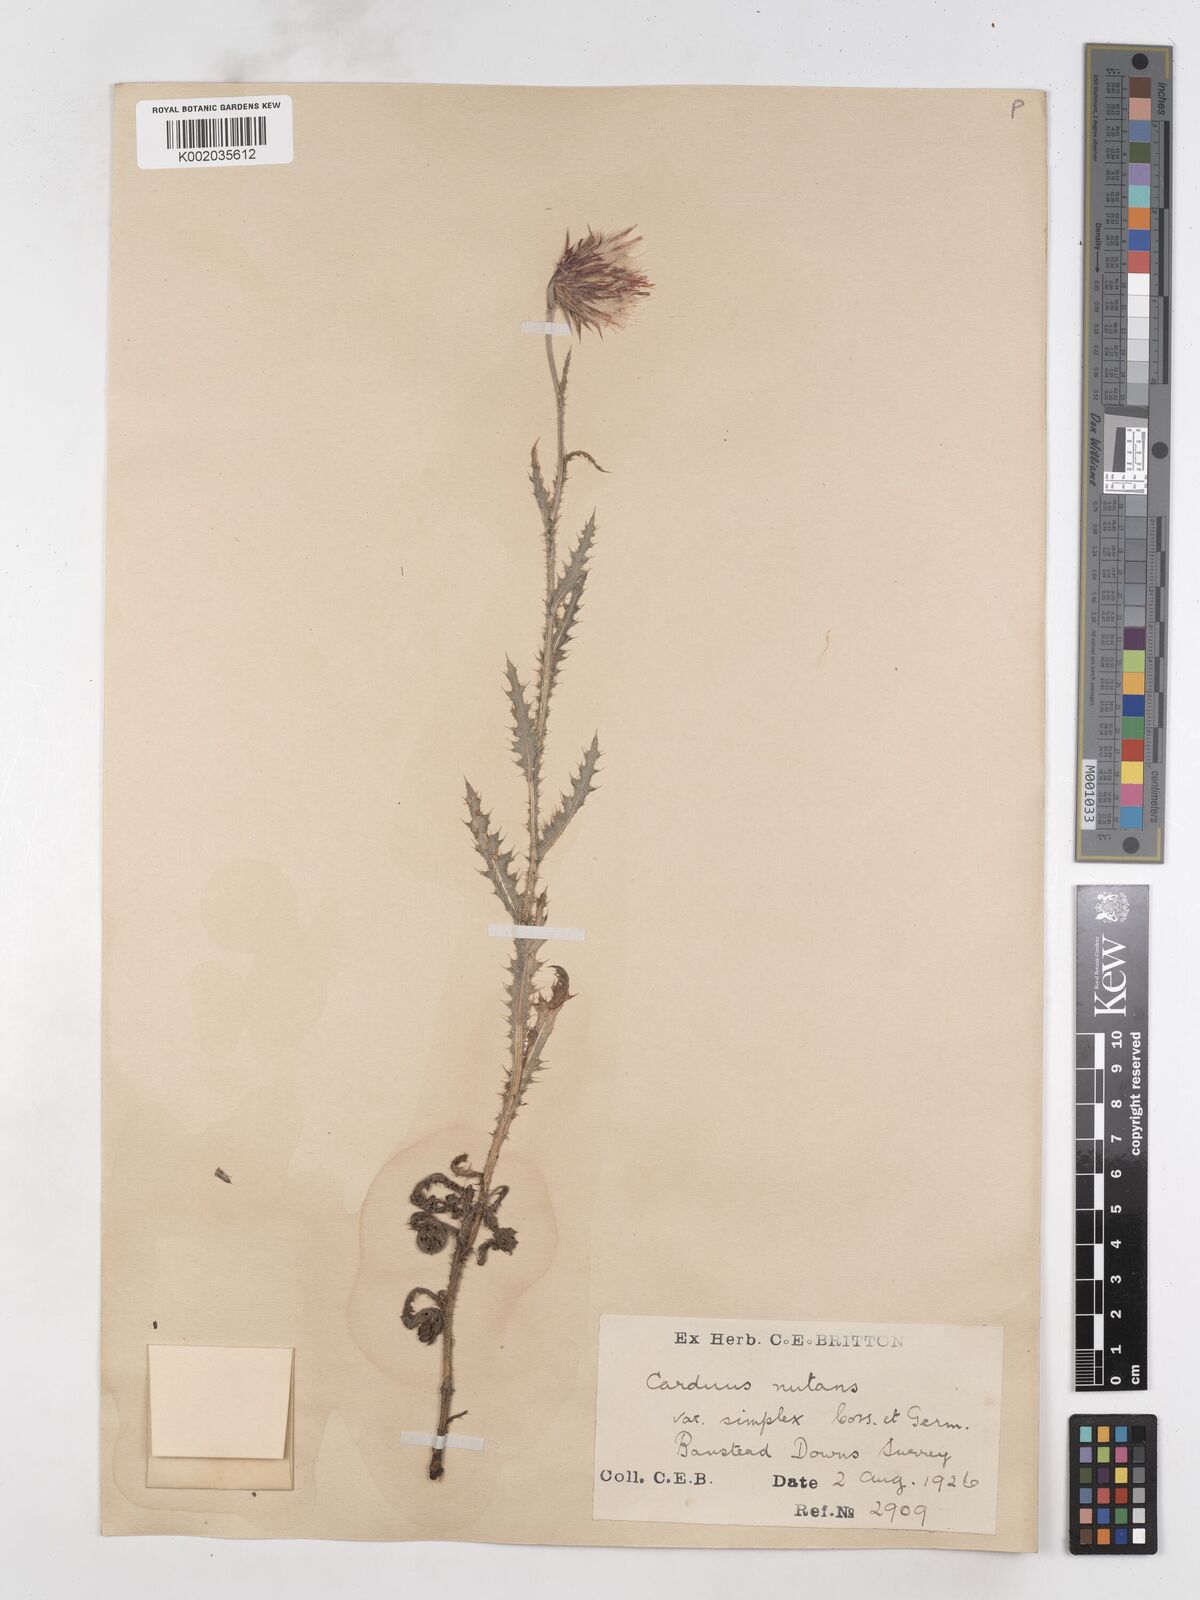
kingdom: Plantae
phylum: Tracheophyta
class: Magnoliopsida
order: Asterales
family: Asteraceae
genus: Carduus
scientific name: Carduus nutans
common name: Musk thistle
